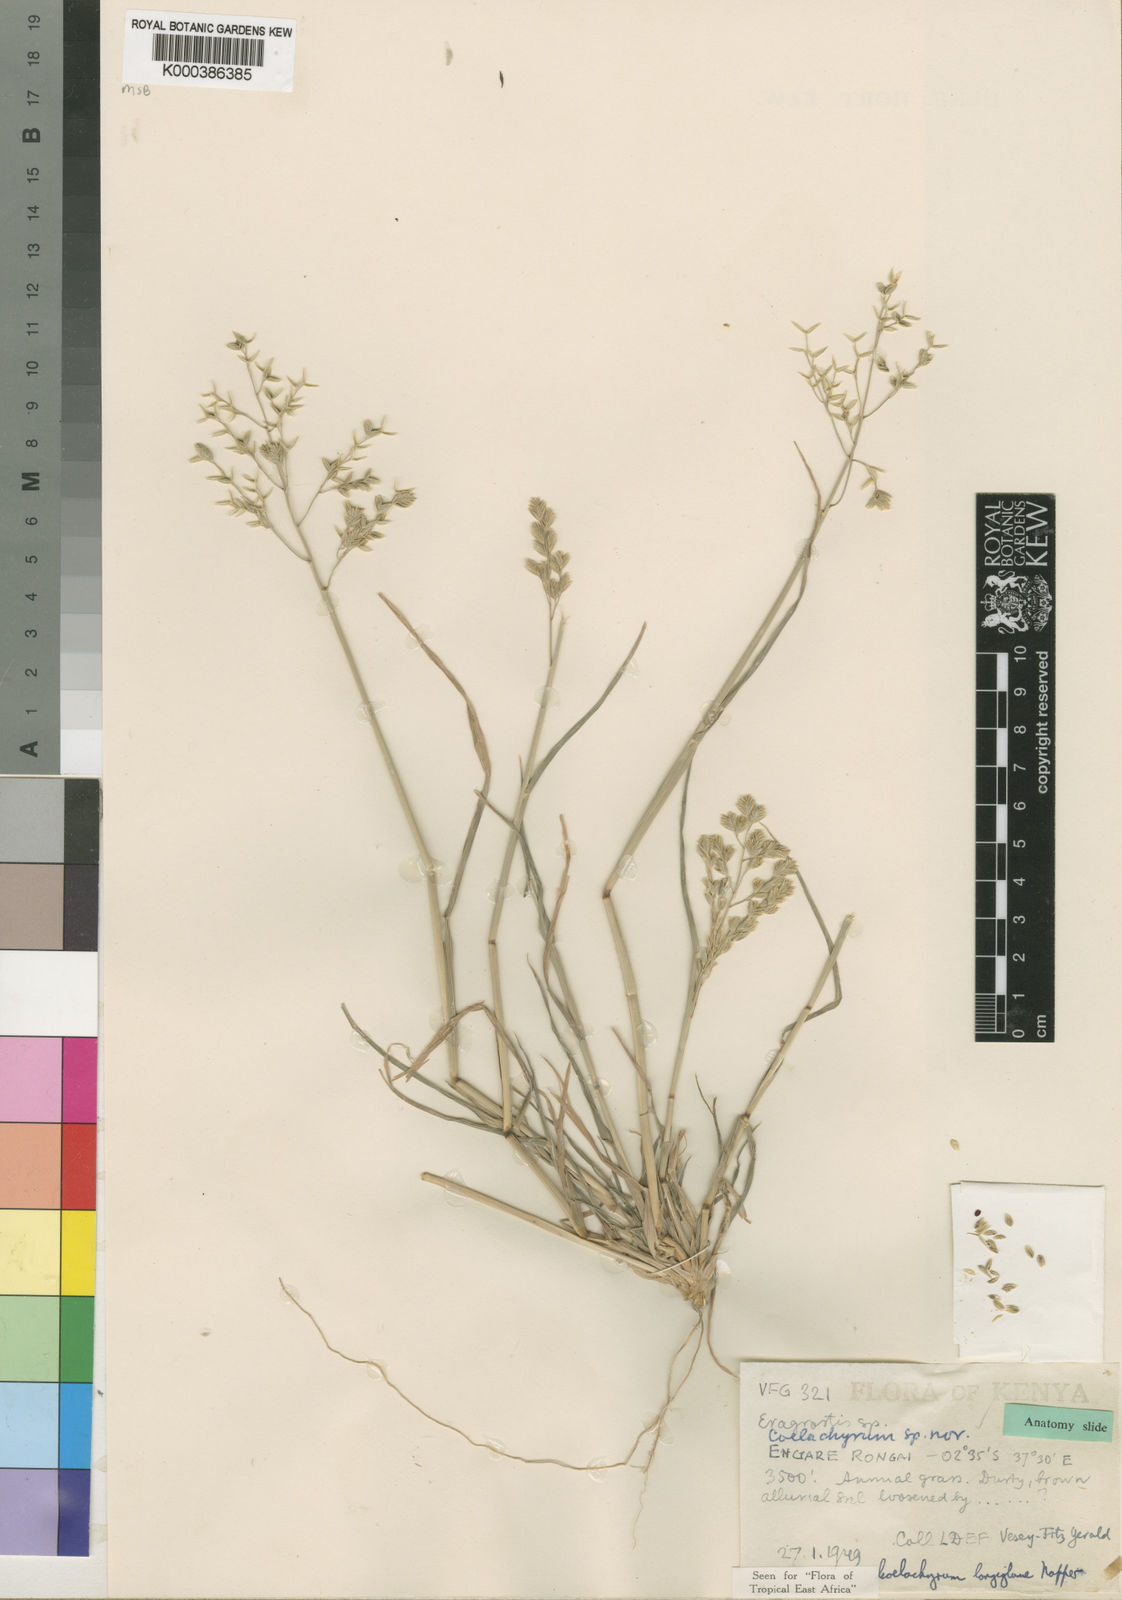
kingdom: Plantae
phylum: Tracheophyta
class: Liliopsida
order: Poales
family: Poaceae
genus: Coelachyrum
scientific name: Coelachyrum longiglume
